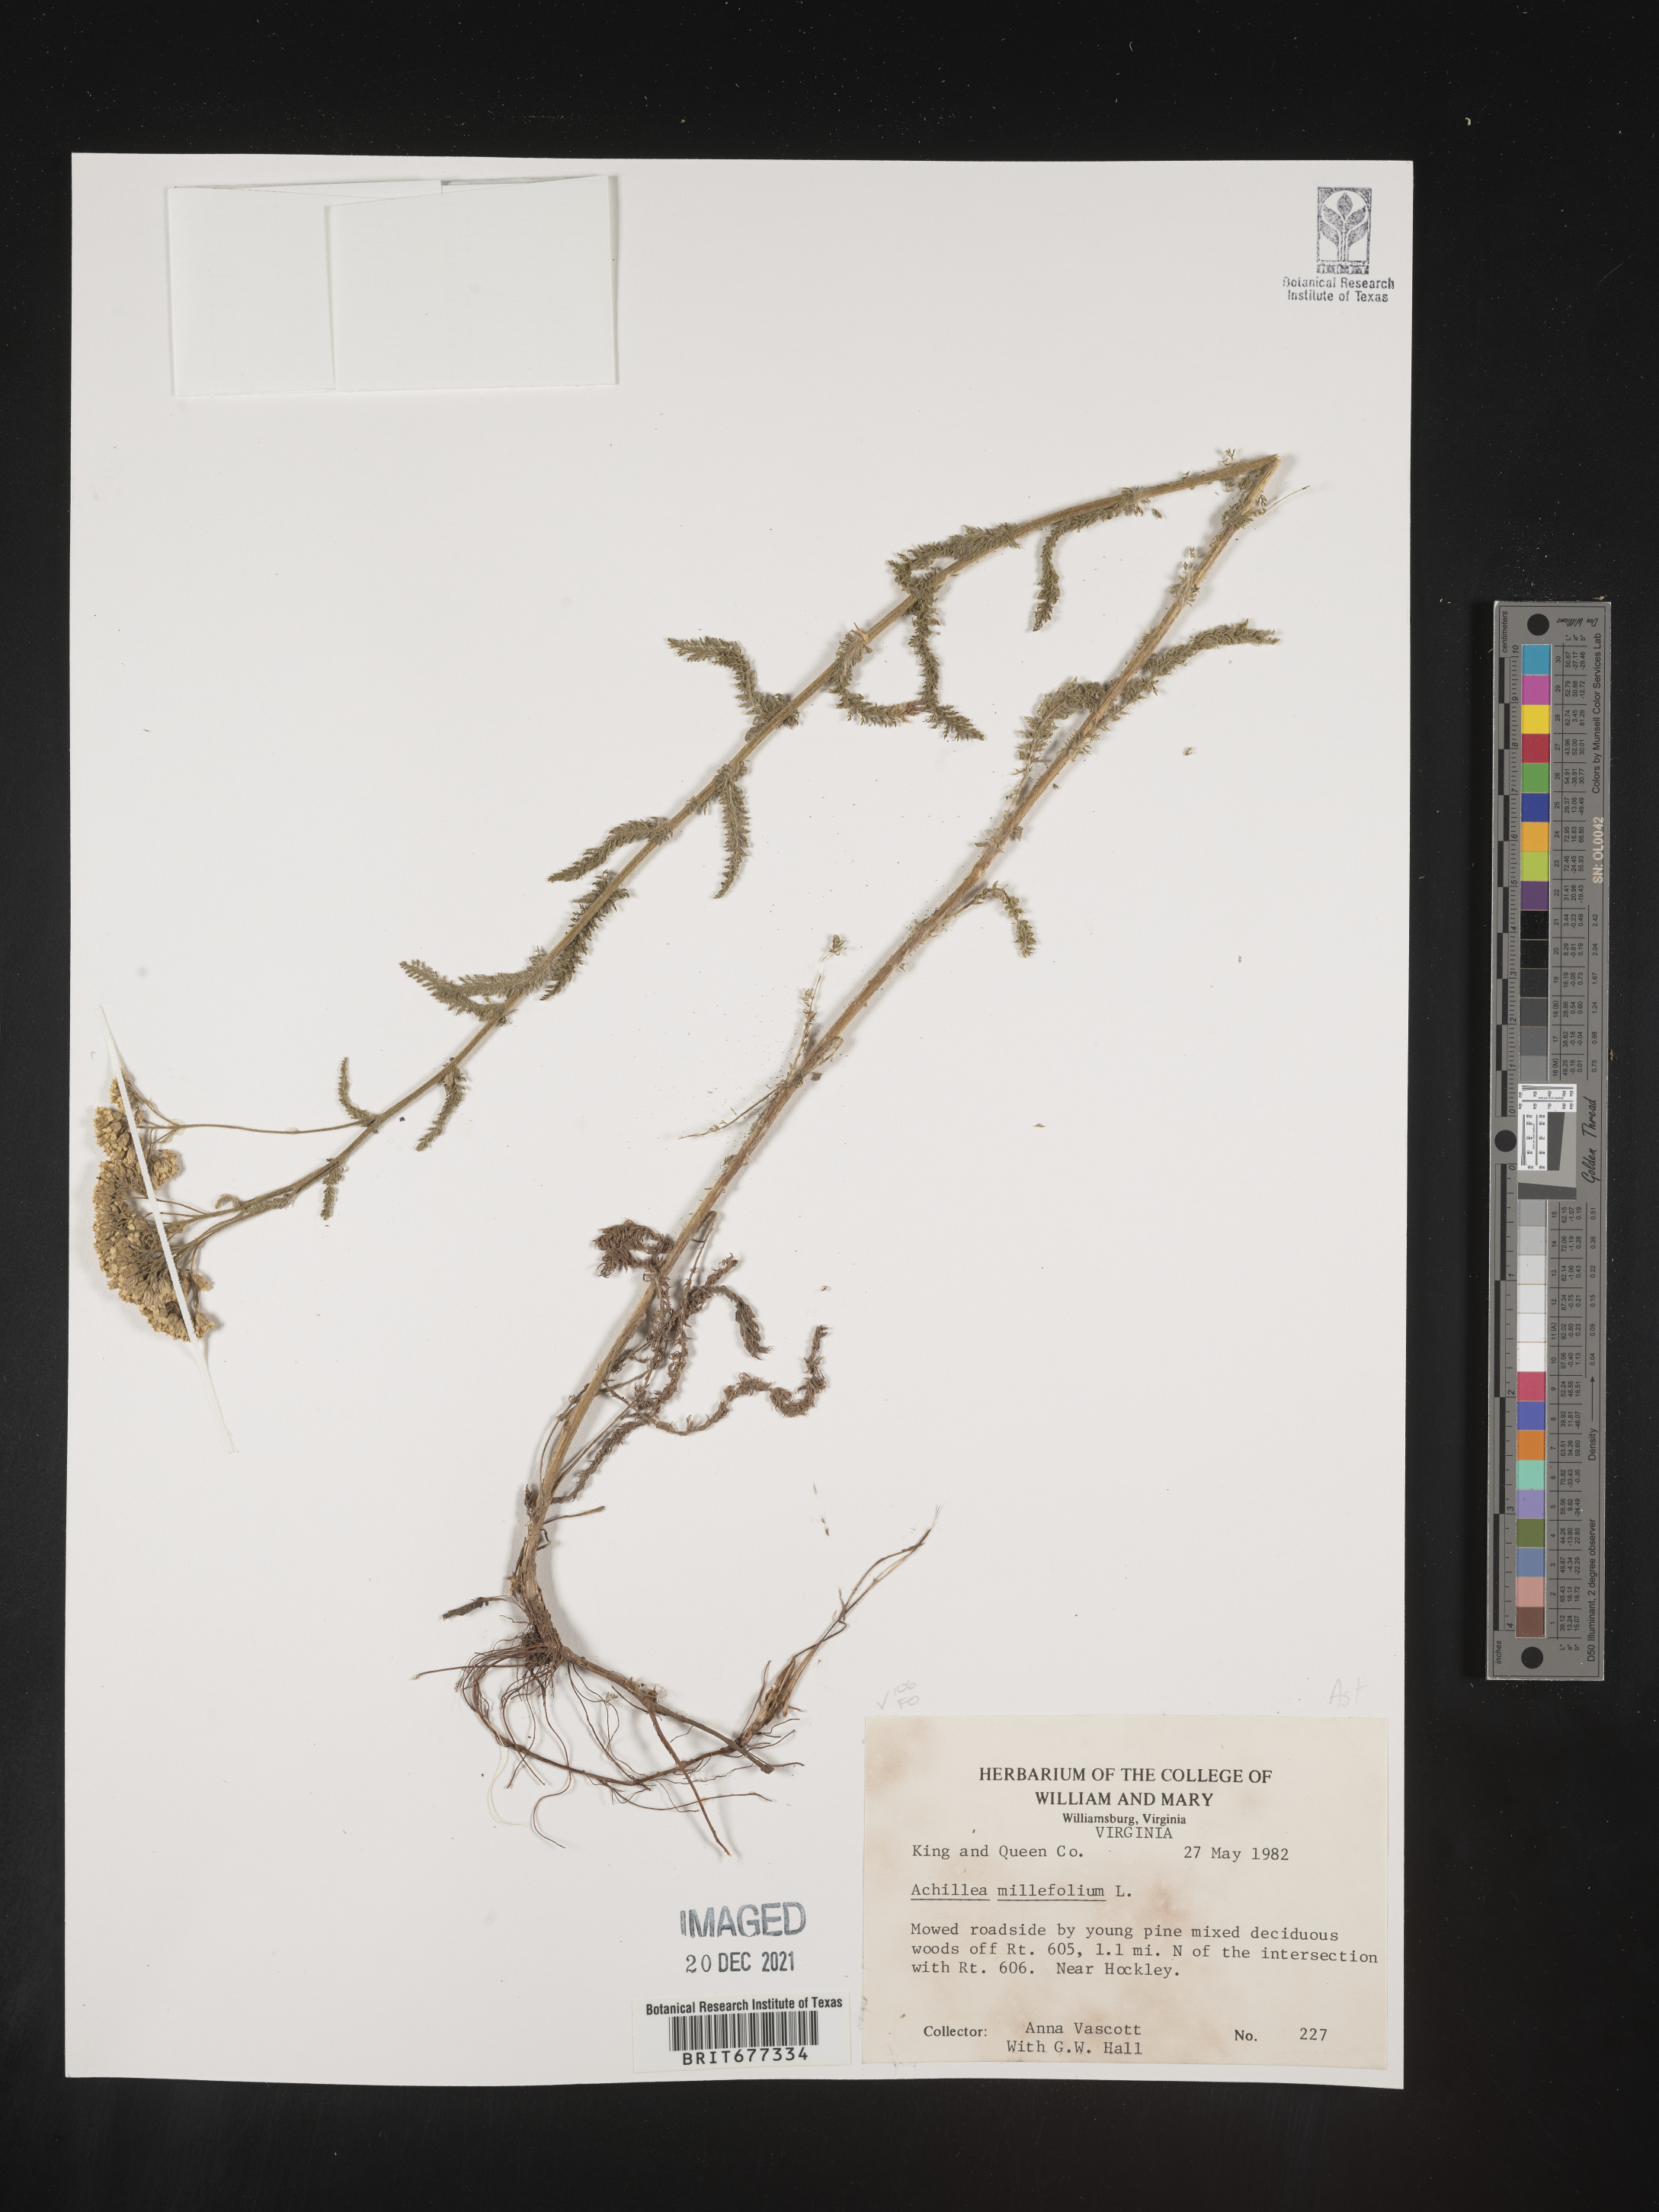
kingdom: Plantae
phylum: Tracheophyta
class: Magnoliopsida
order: Asterales
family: Asteraceae
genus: Achillea
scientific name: Achillea millefolium
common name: Yarrow
